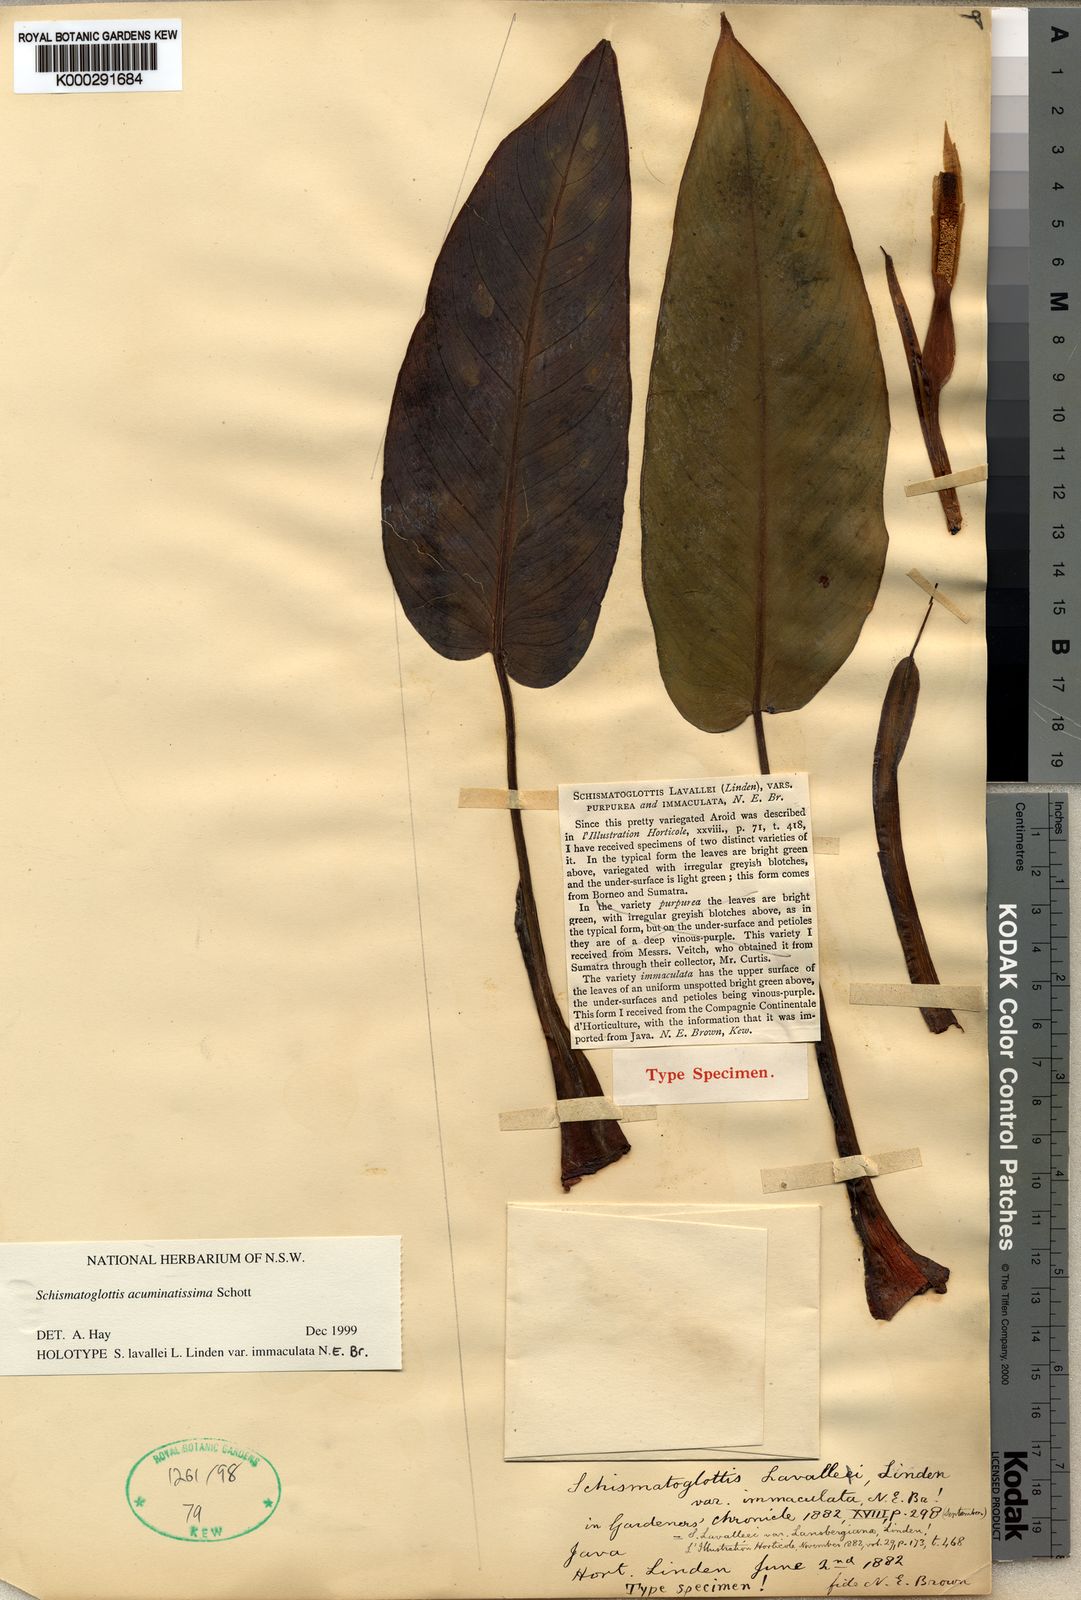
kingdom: Plantae
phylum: Tracheophyta
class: Liliopsida
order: Alismatales
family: Araceae
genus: Apoballis
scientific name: Apoballis acuminatissima
